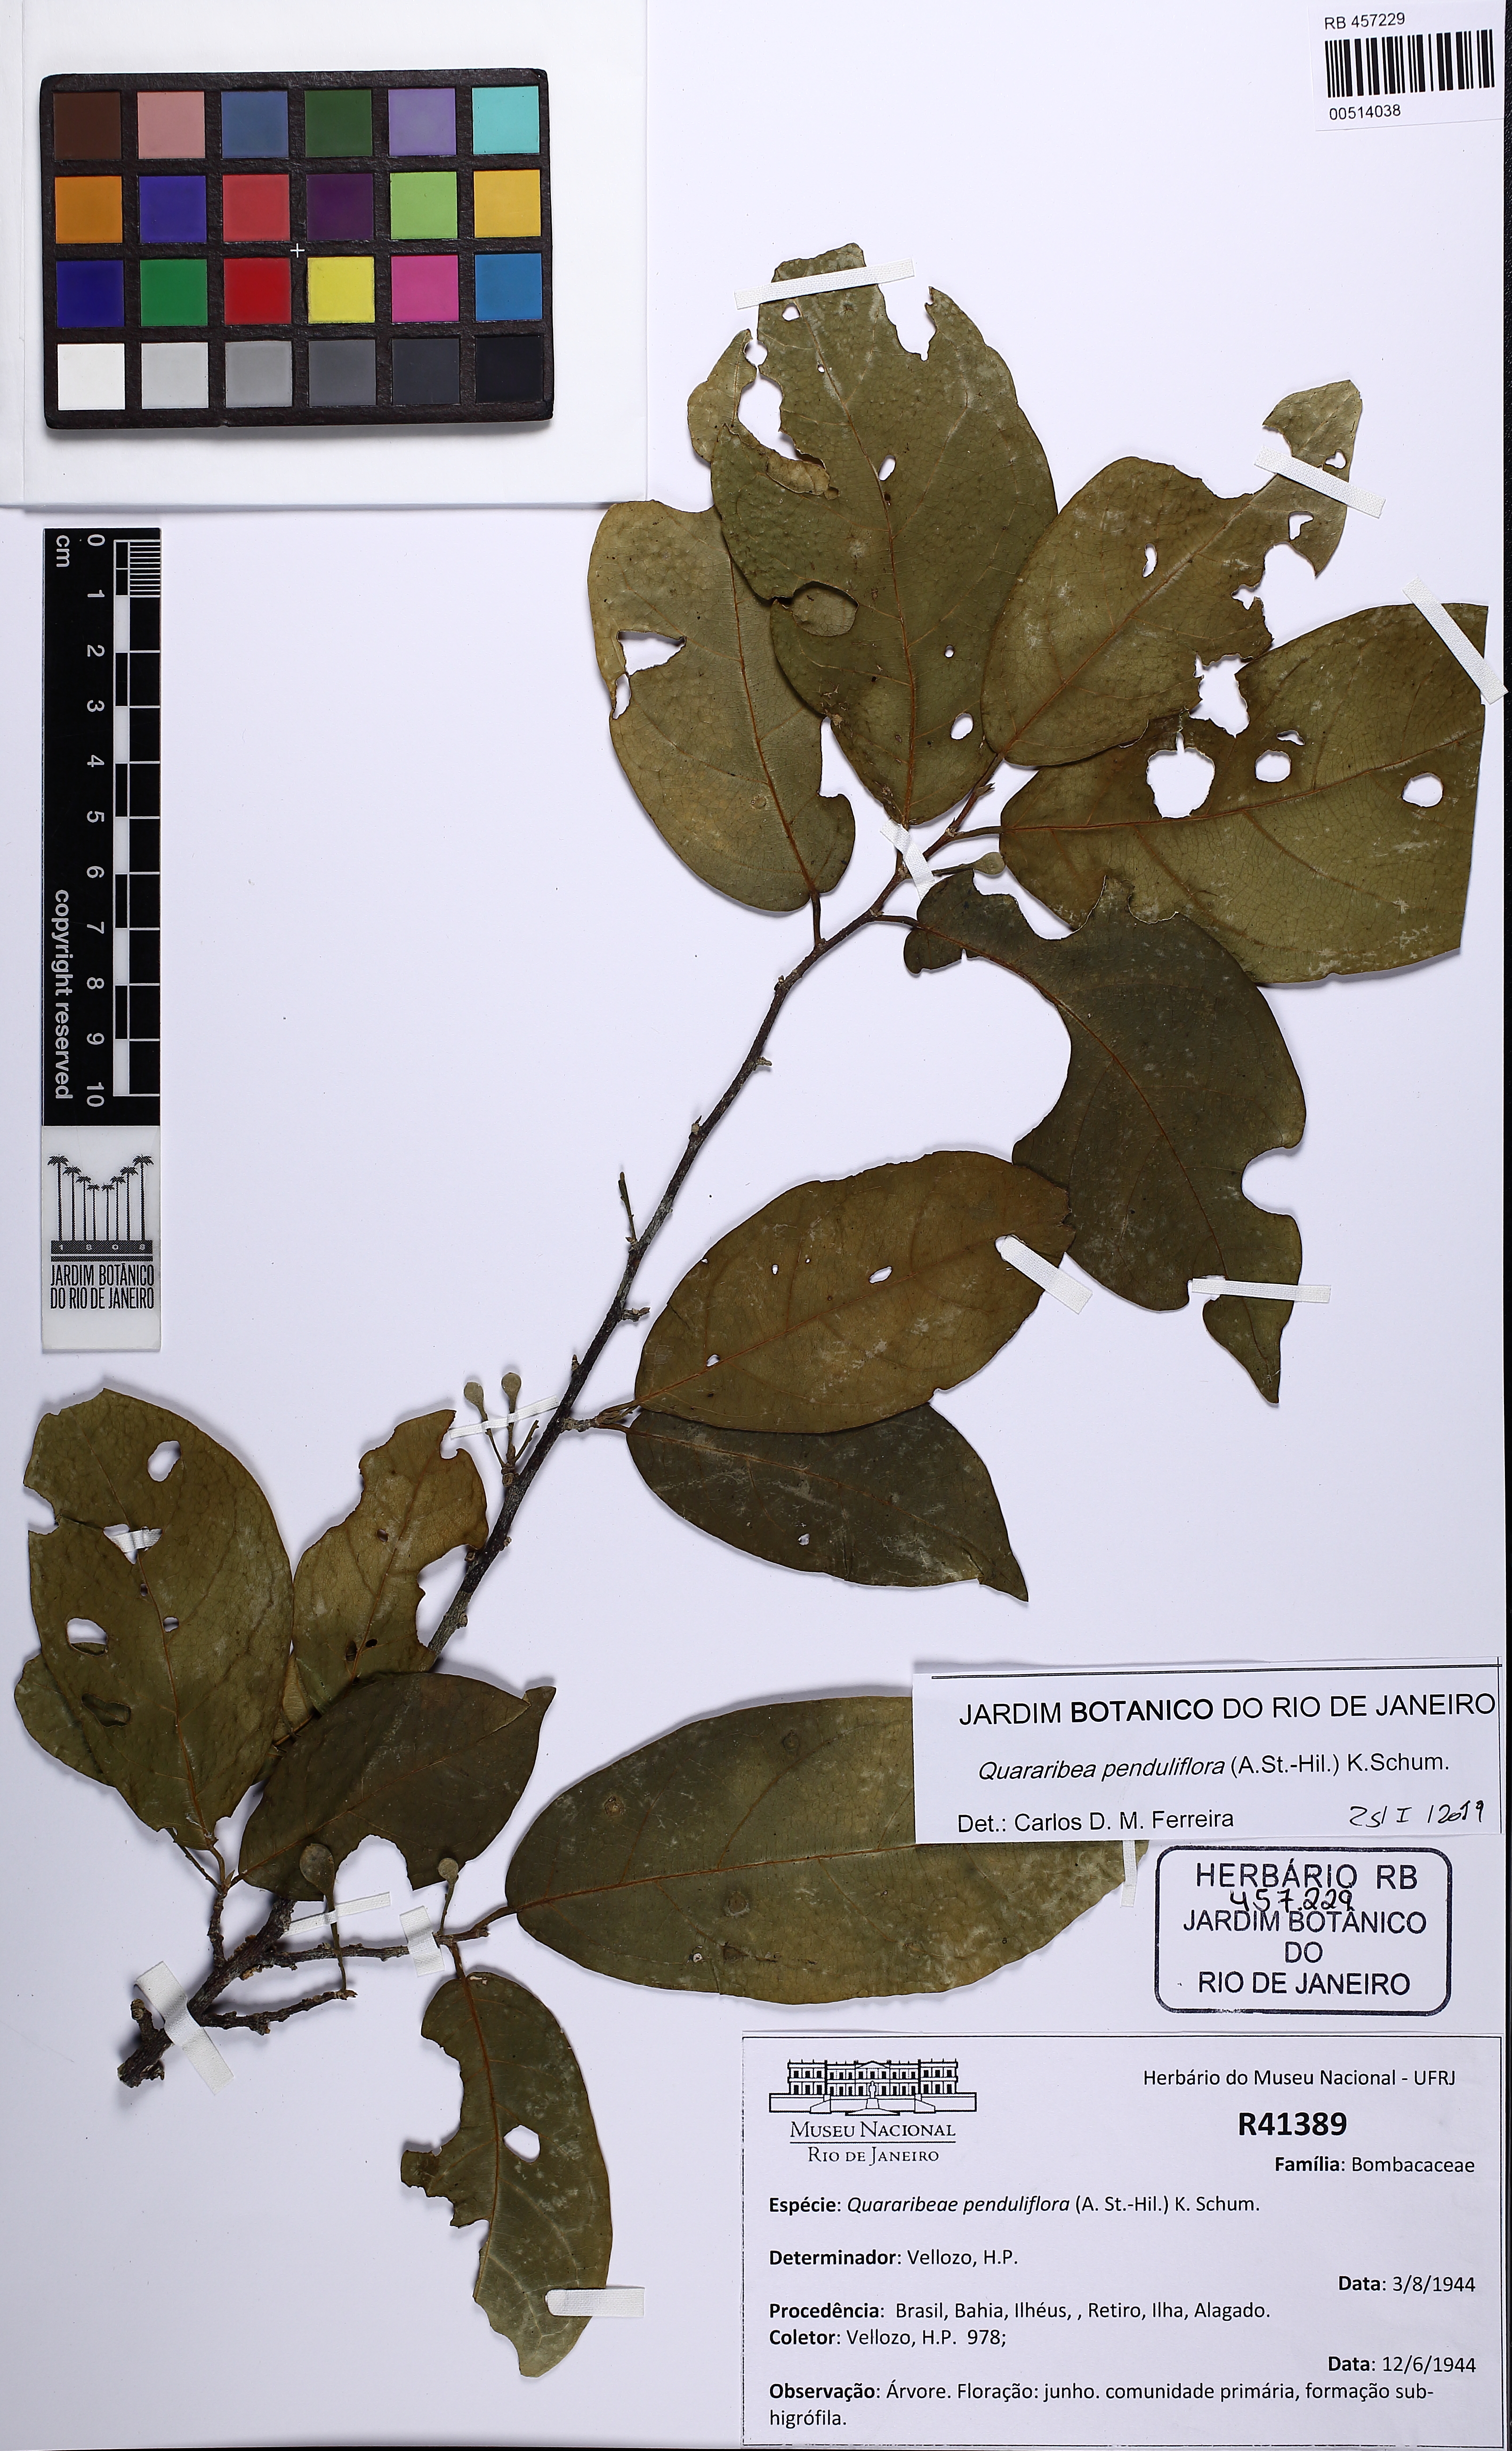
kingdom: Plantae
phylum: Tracheophyta
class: Magnoliopsida
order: Malvales
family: Malvaceae
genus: Quararibea
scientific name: Quararibea penduliflora
